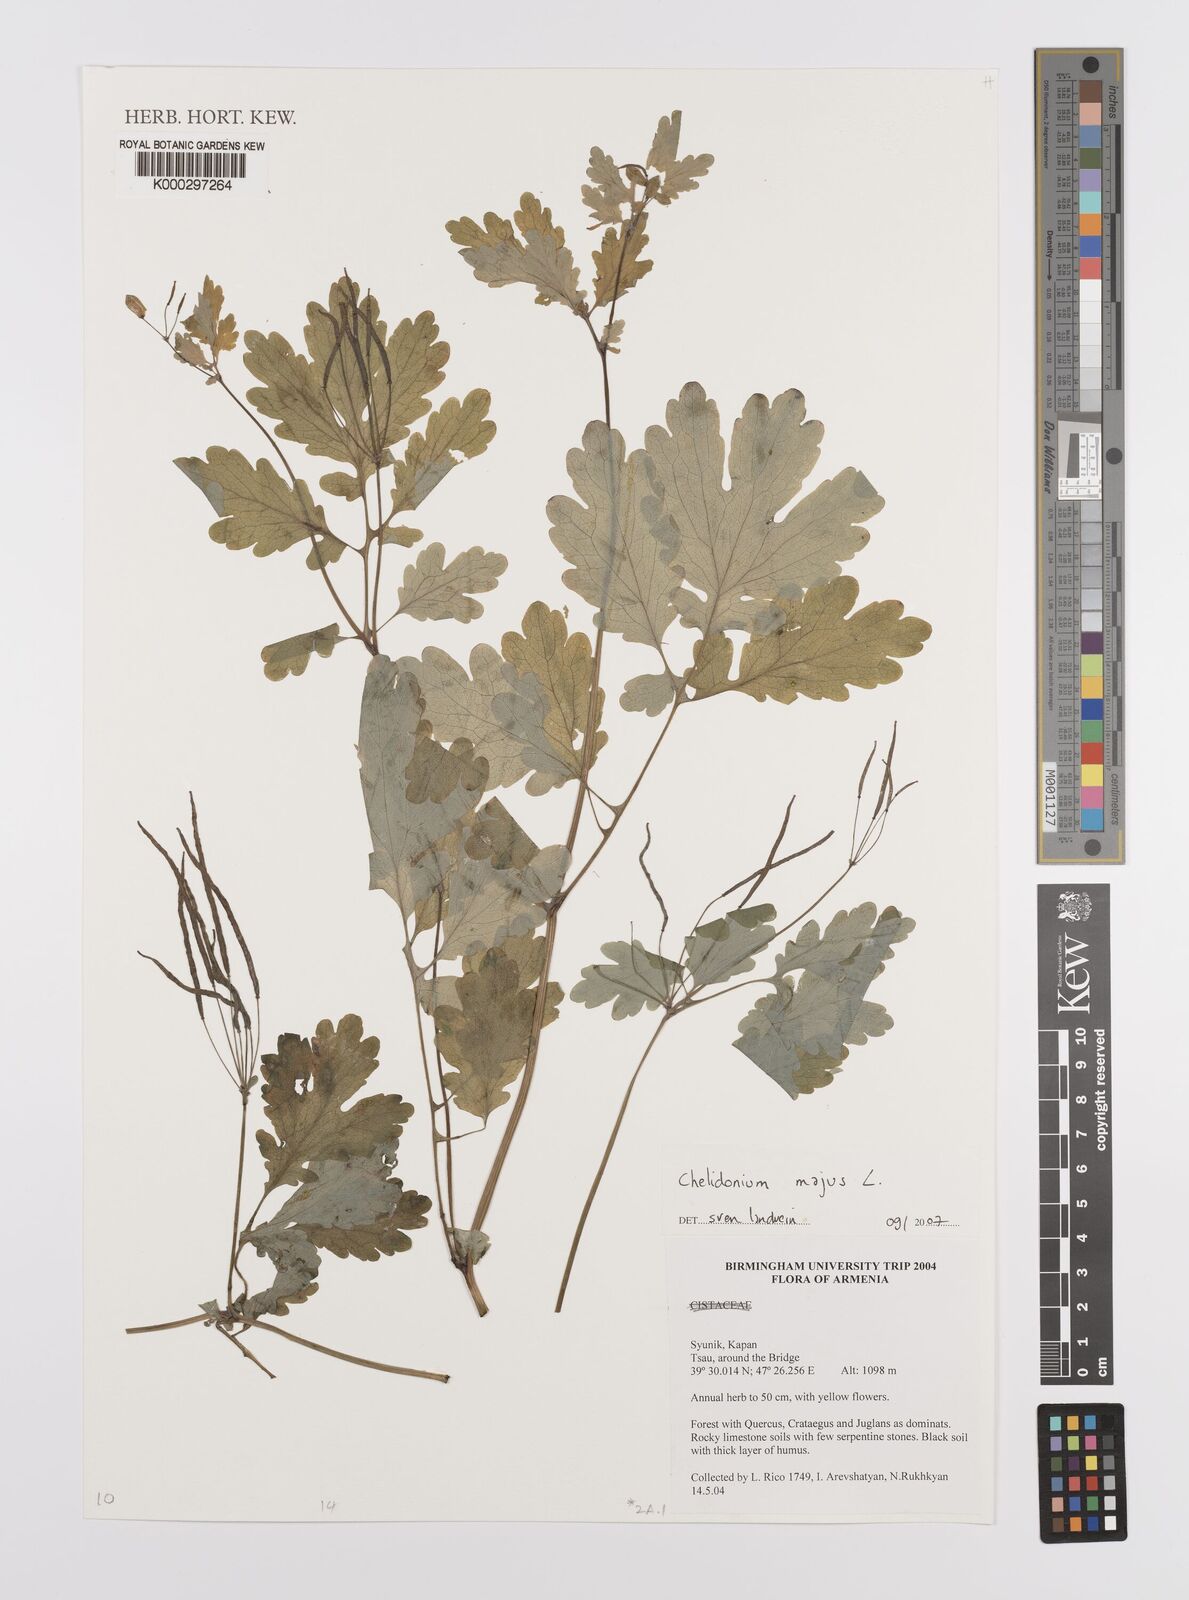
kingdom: Plantae
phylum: Tracheophyta
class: Magnoliopsida
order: Brassicales
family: Brassicaceae
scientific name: Brassicaceae
